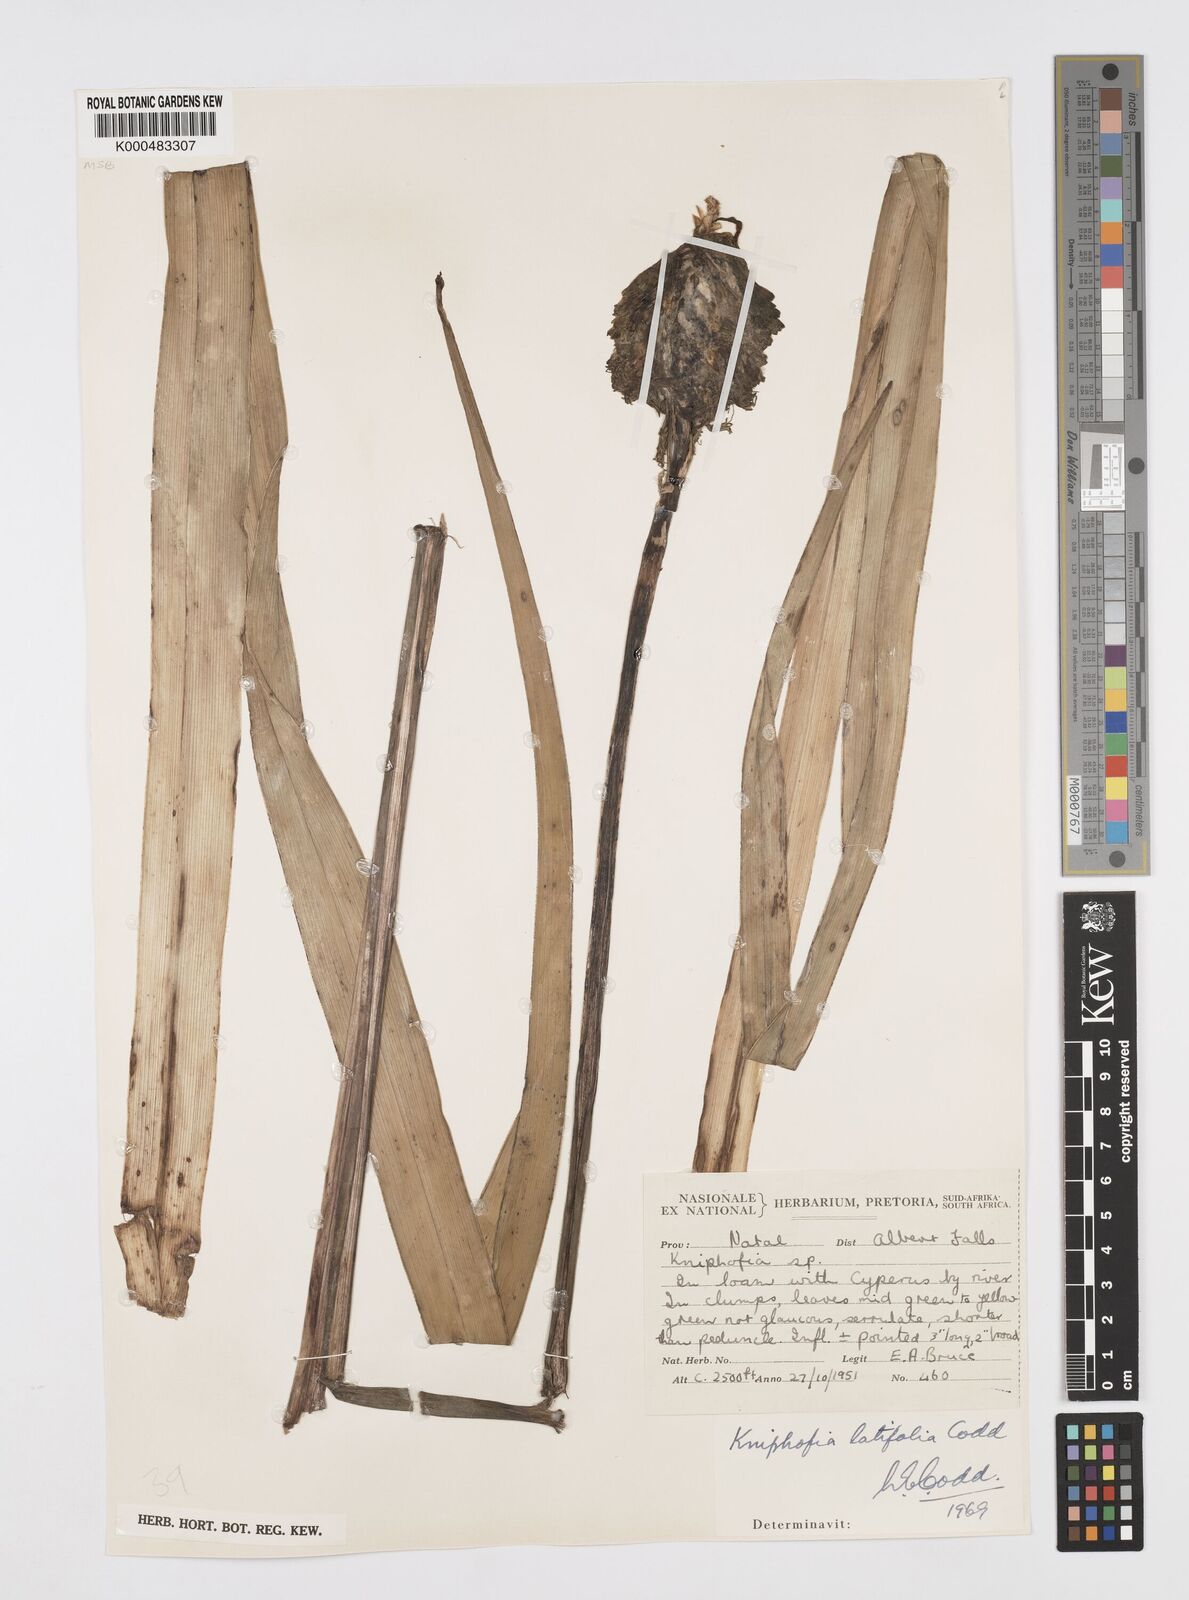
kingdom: Plantae
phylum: Tracheophyta
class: Liliopsida
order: Asparagales
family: Asphodelaceae
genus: Kniphofia
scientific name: Kniphofia latifolia
